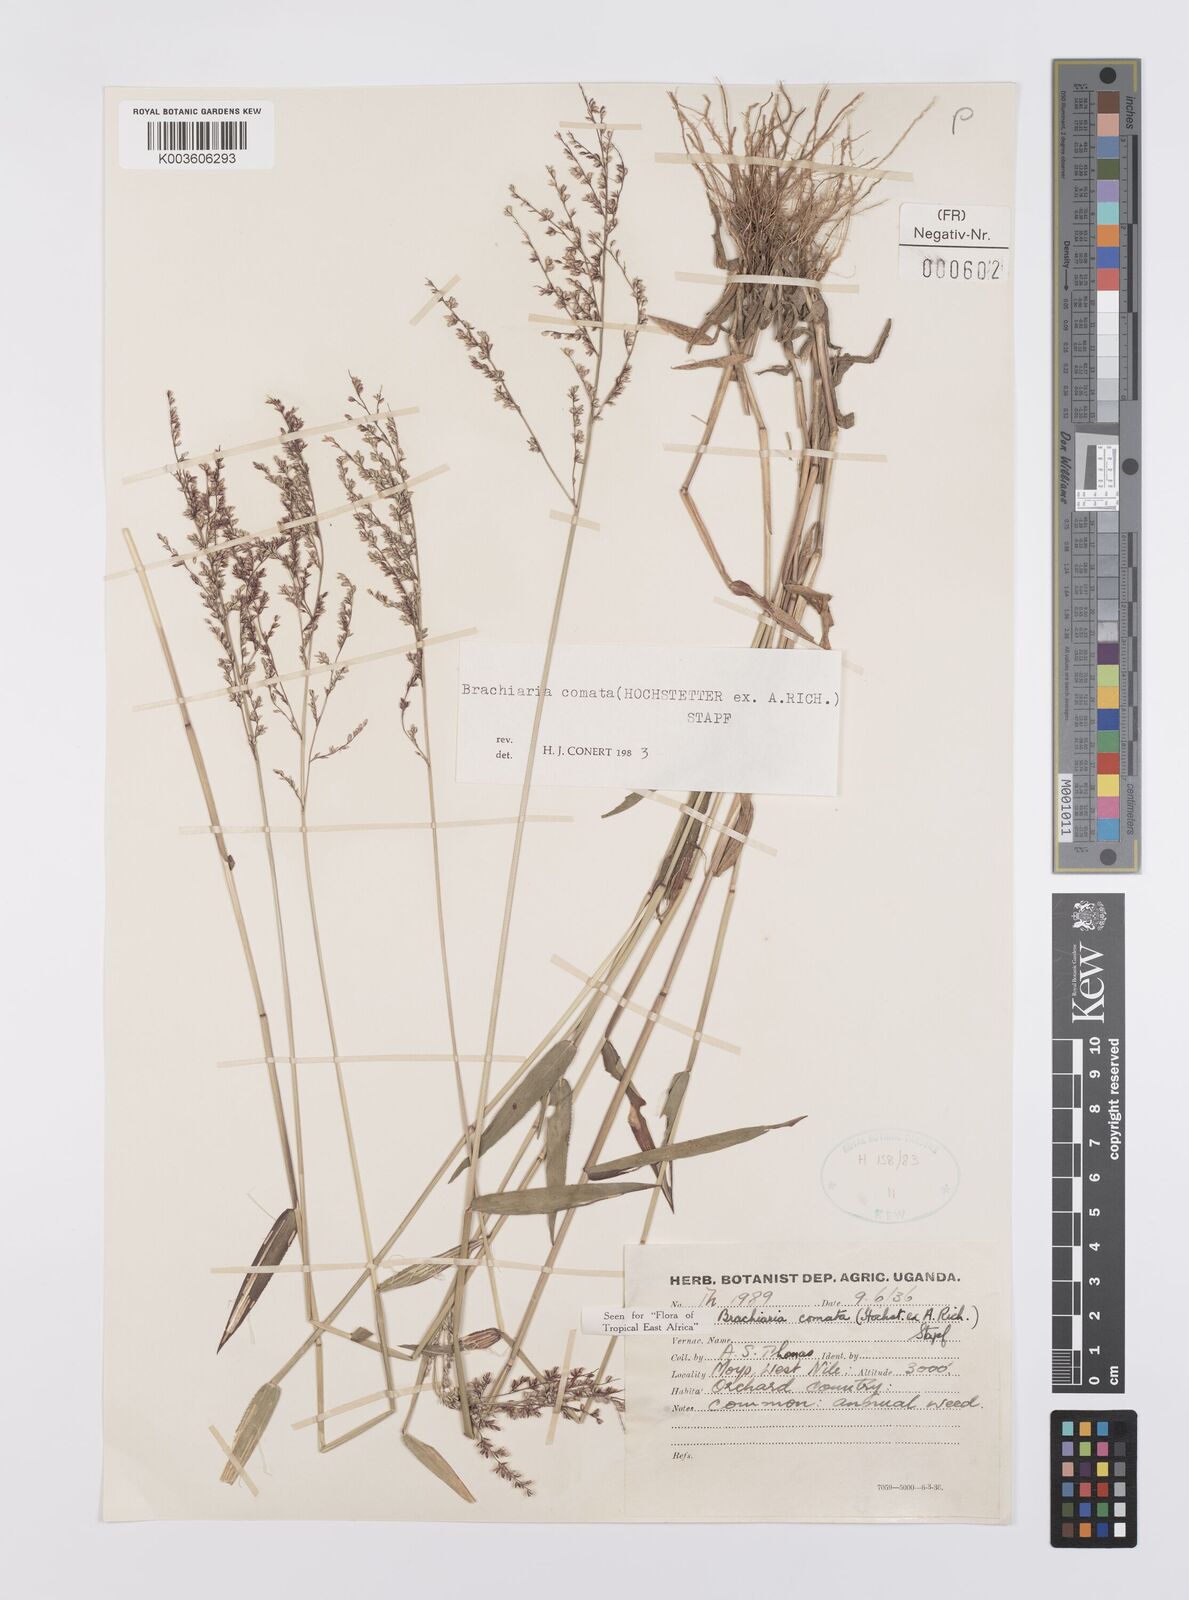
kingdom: Plantae
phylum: Tracheophyta
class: Liliopsida
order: Poales
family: Poaceae
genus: Urochloa
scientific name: Urochloa comata
